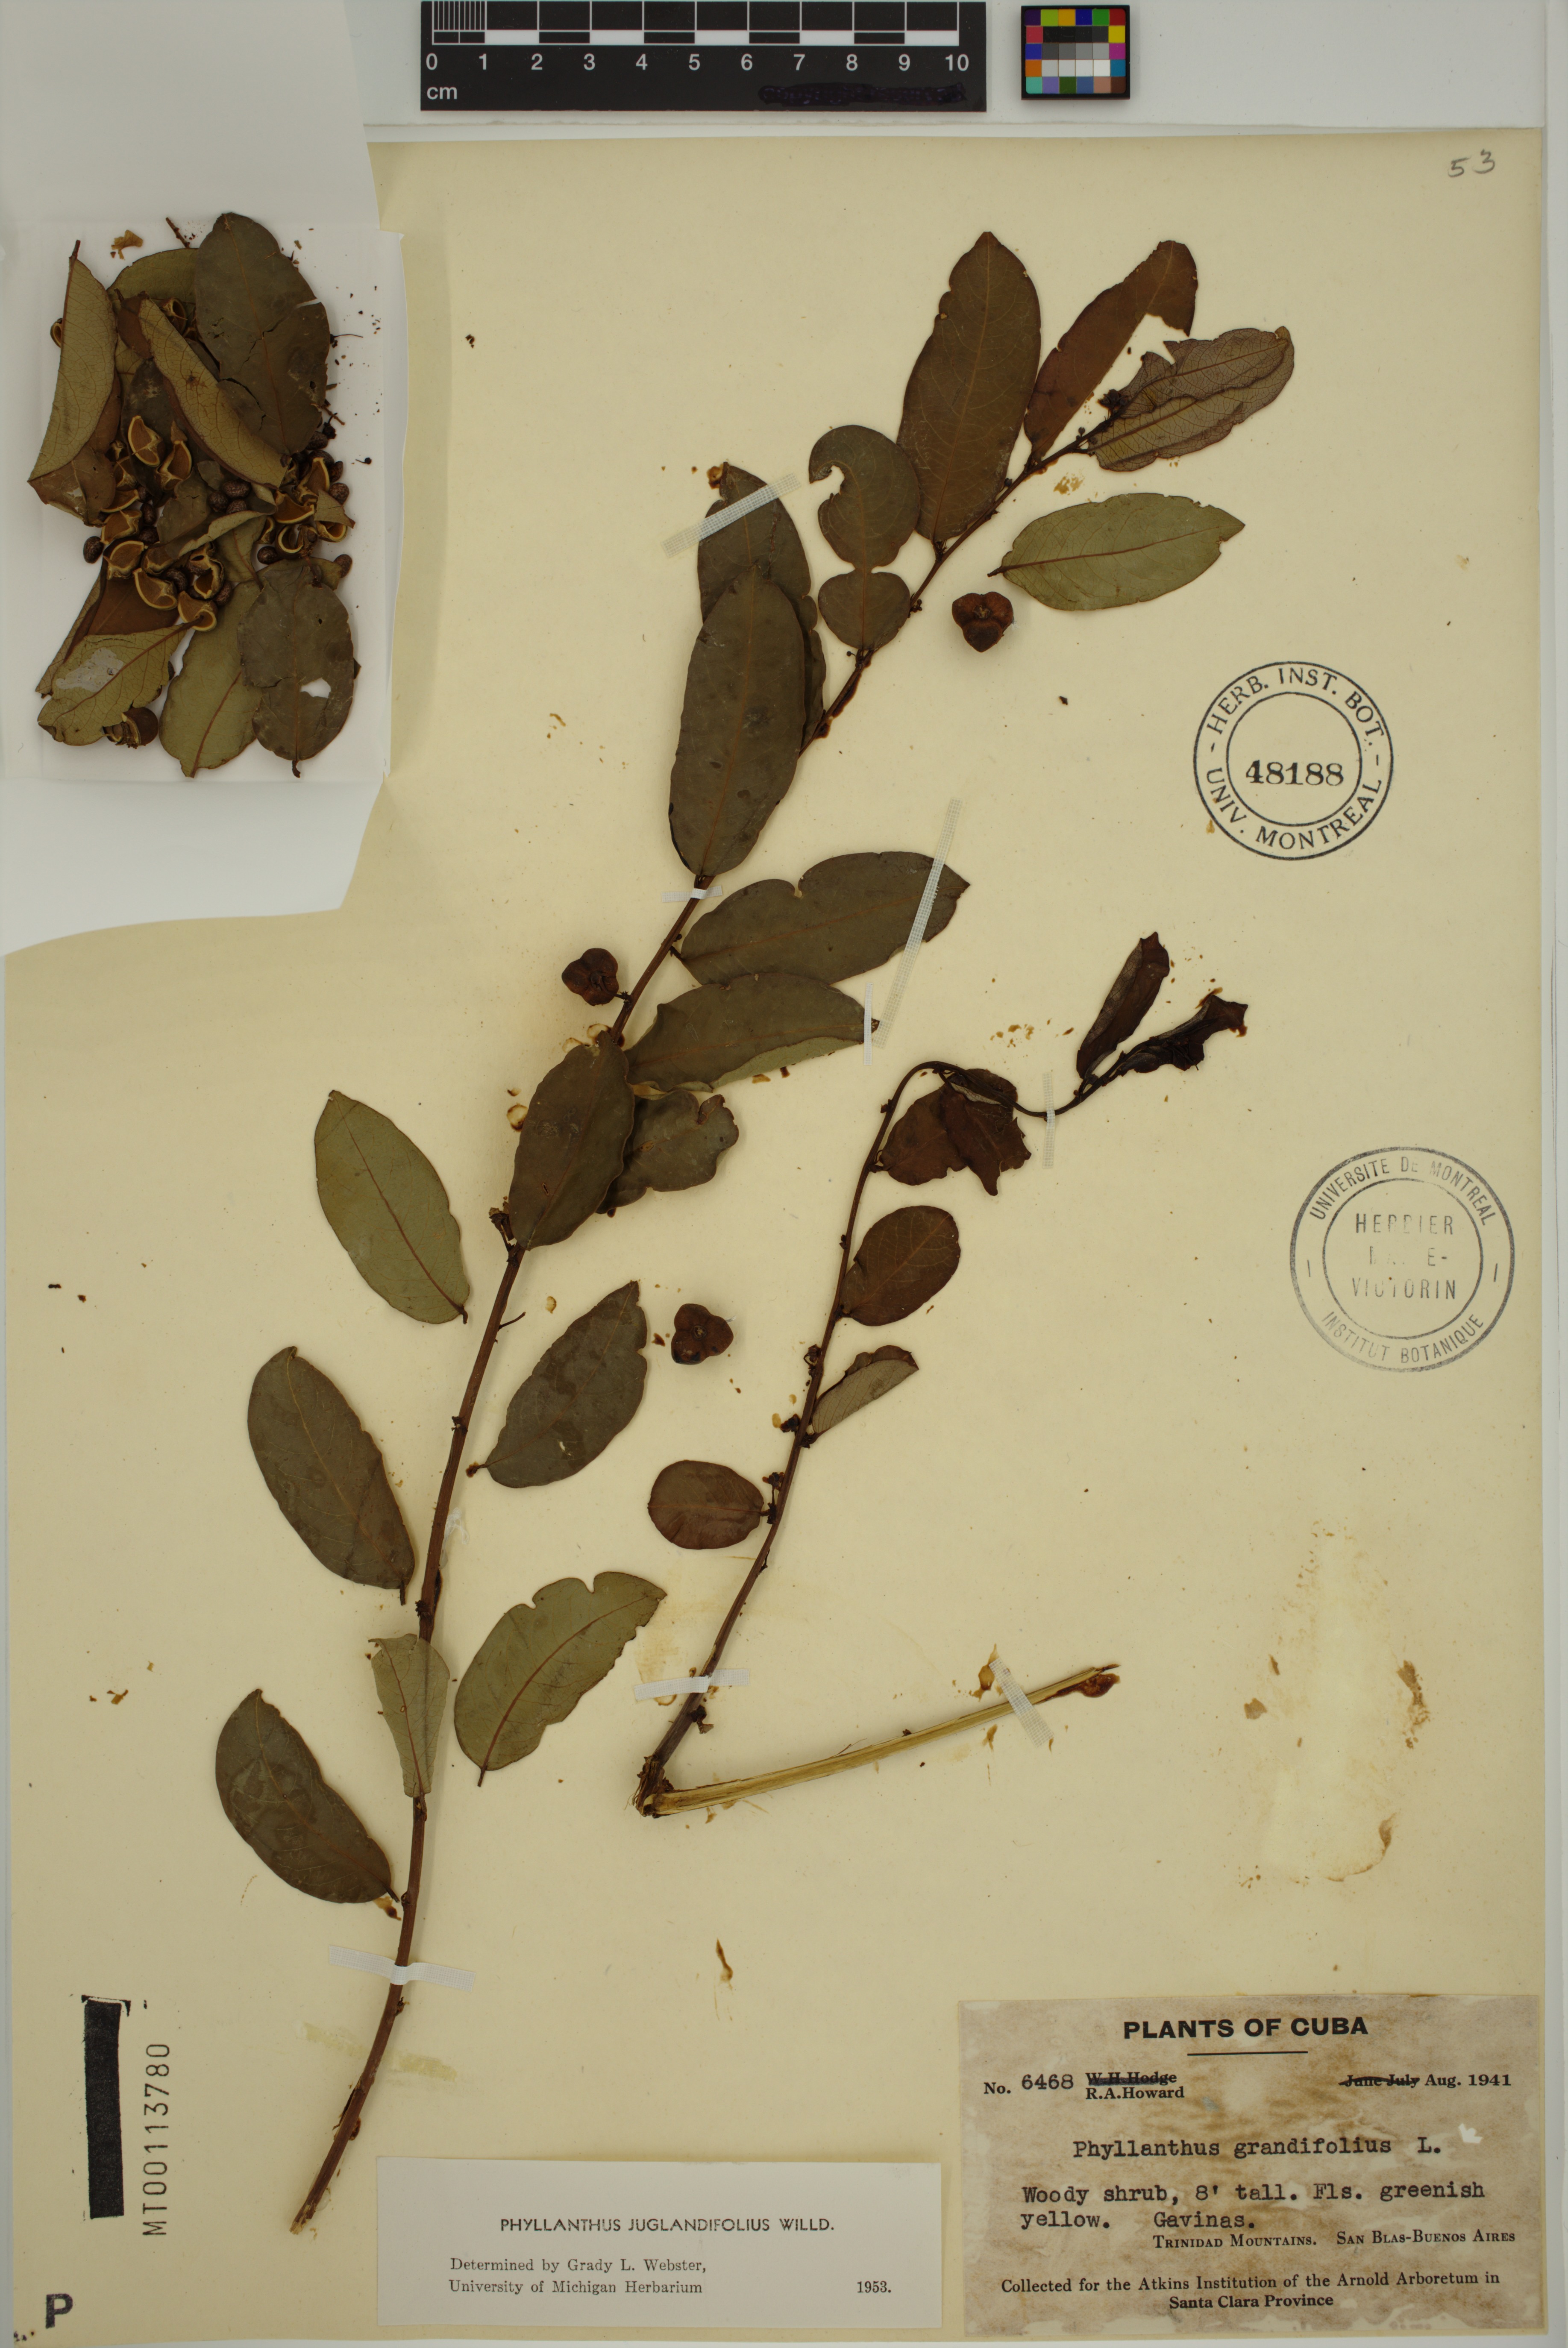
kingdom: Plantae
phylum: Tracheophyta
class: Magnoliopsida
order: Malpighiales
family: Phyllanthaceae
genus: Phyllanthus
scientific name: Phyllanthus juglandifolius
